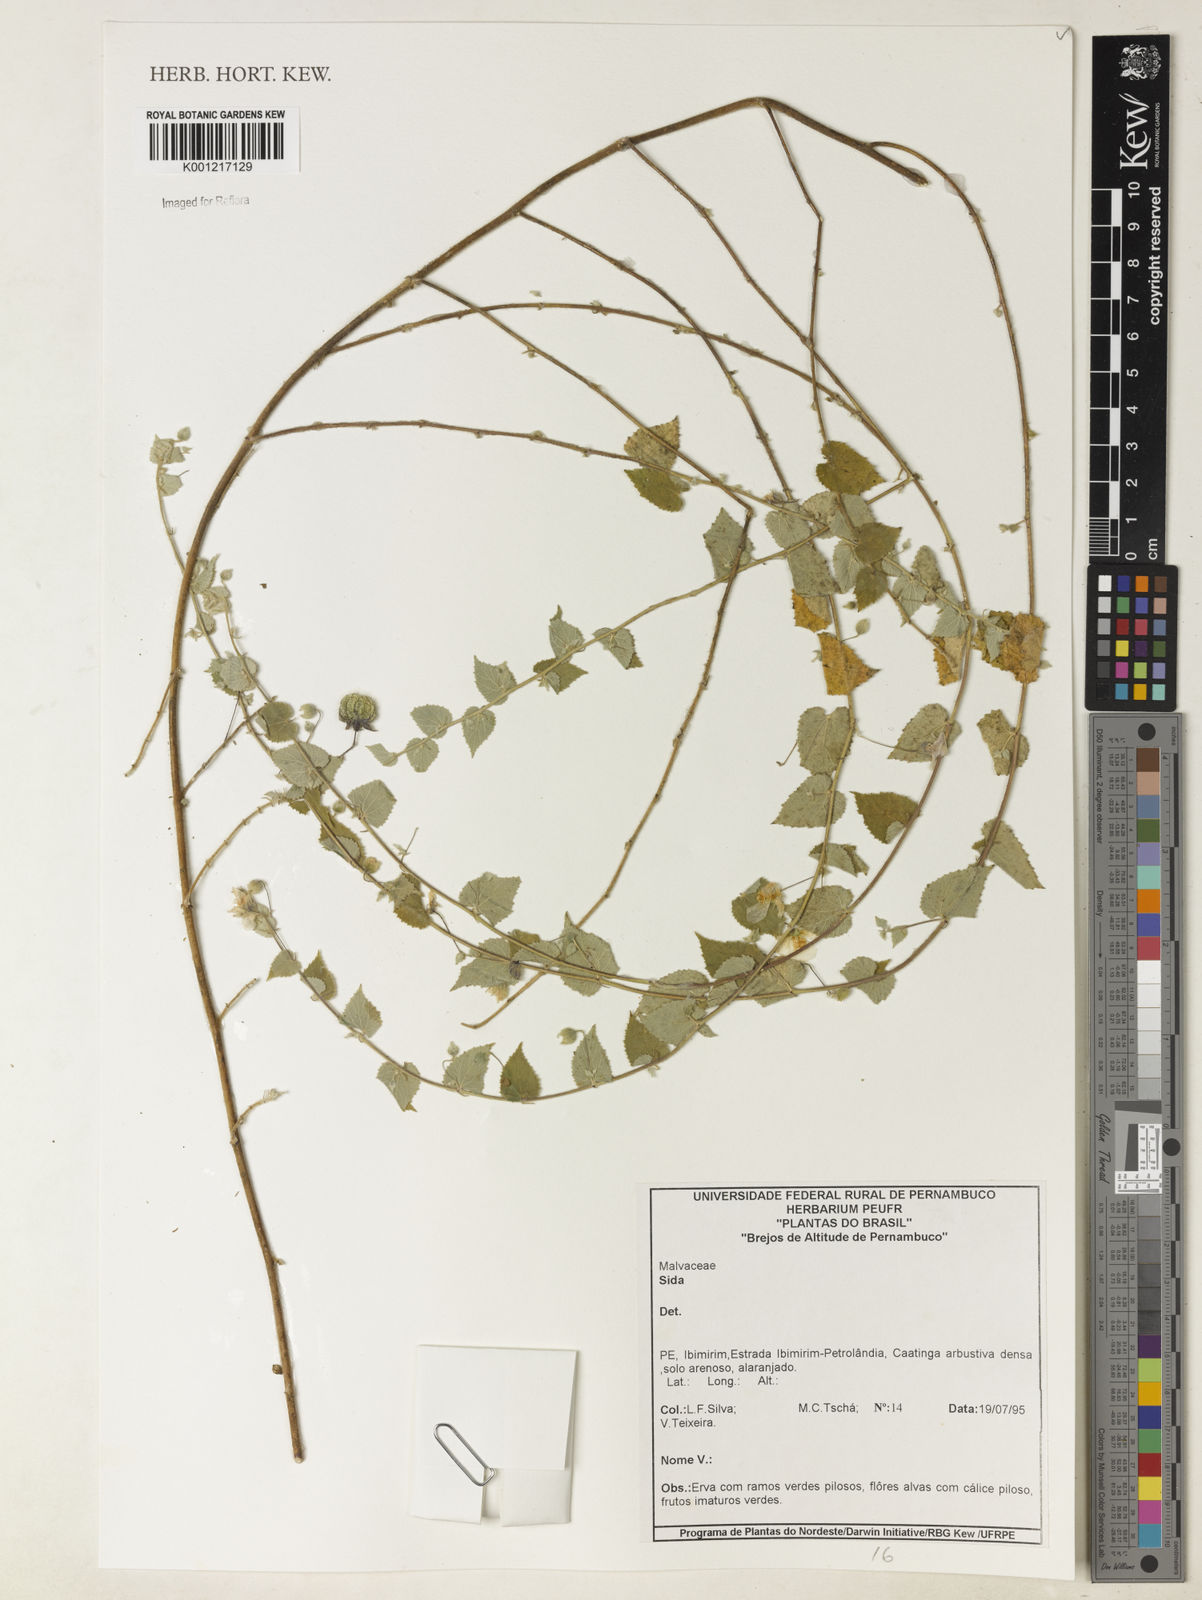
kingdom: Plantae
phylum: Tracheophyta
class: Magnoliopsida
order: Malvales
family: Malvaceae
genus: Sida
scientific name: Sida
